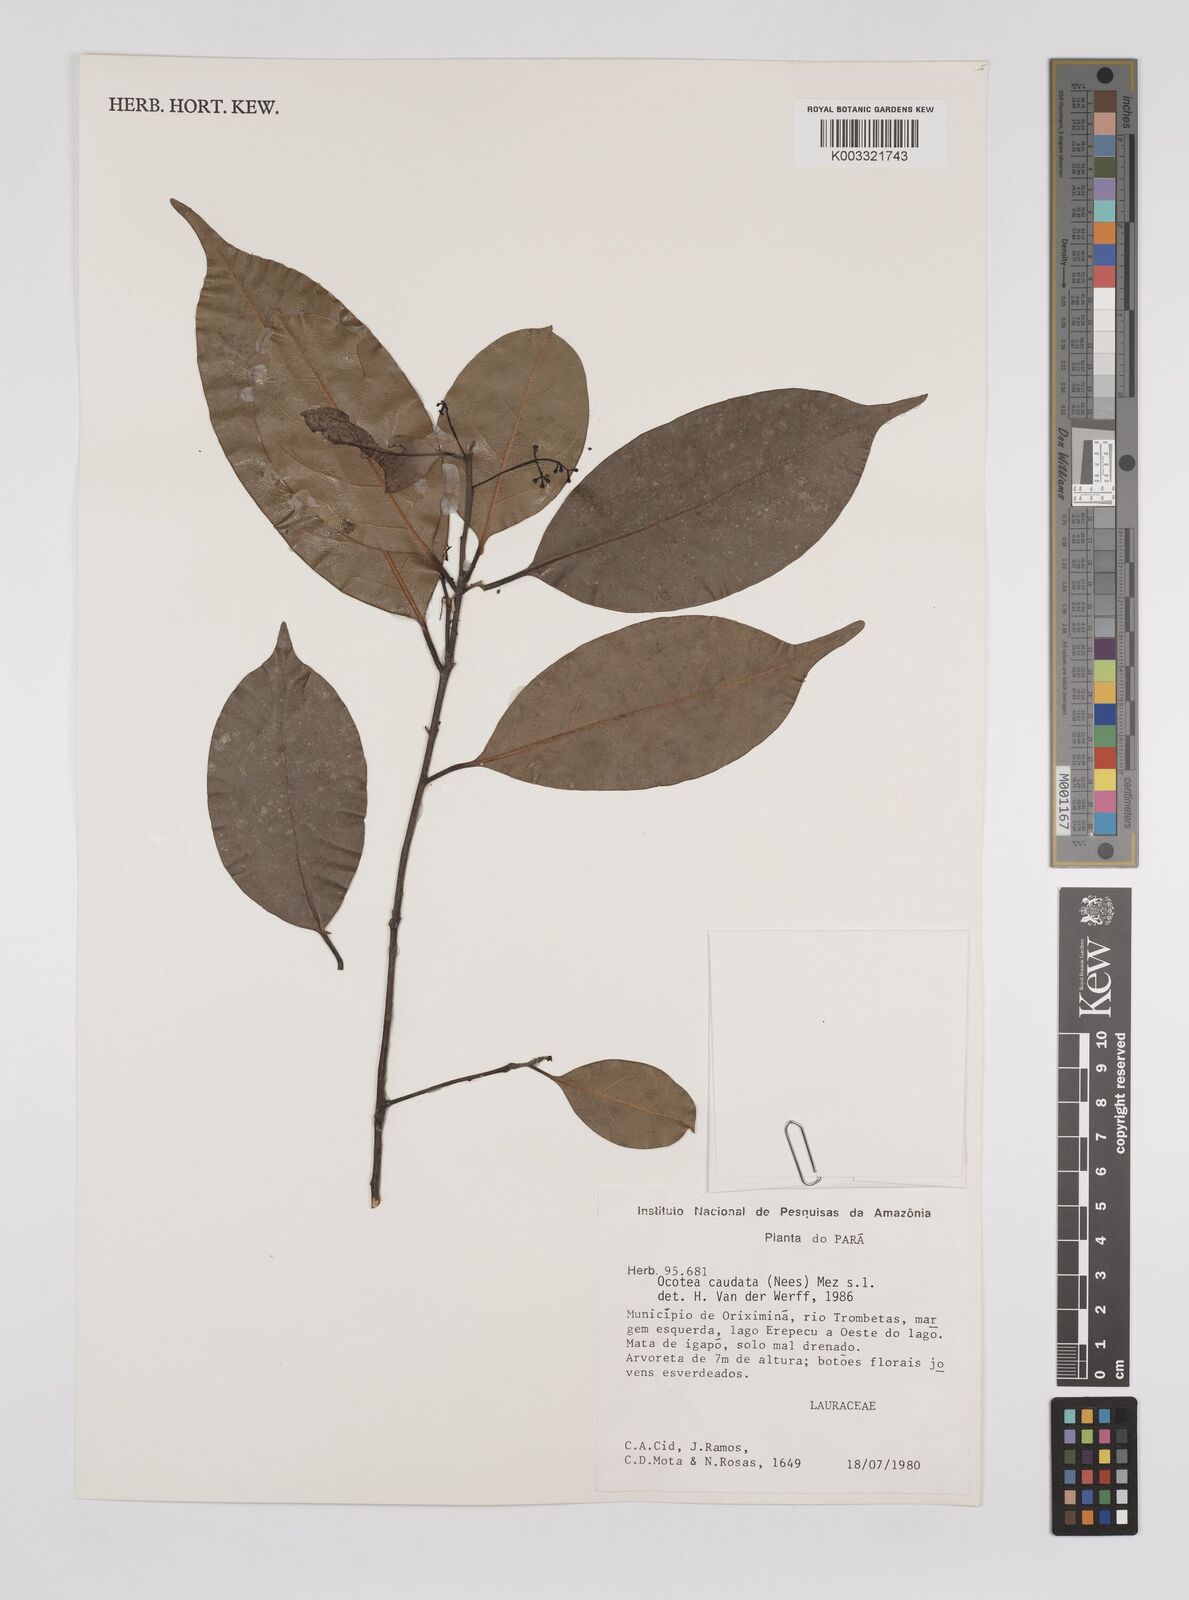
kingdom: Plantae
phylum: Tracheophyta
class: Magnoliopsida
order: Laurales
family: Lauraceae
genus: Ocotea
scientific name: Ocotea leptobotra
